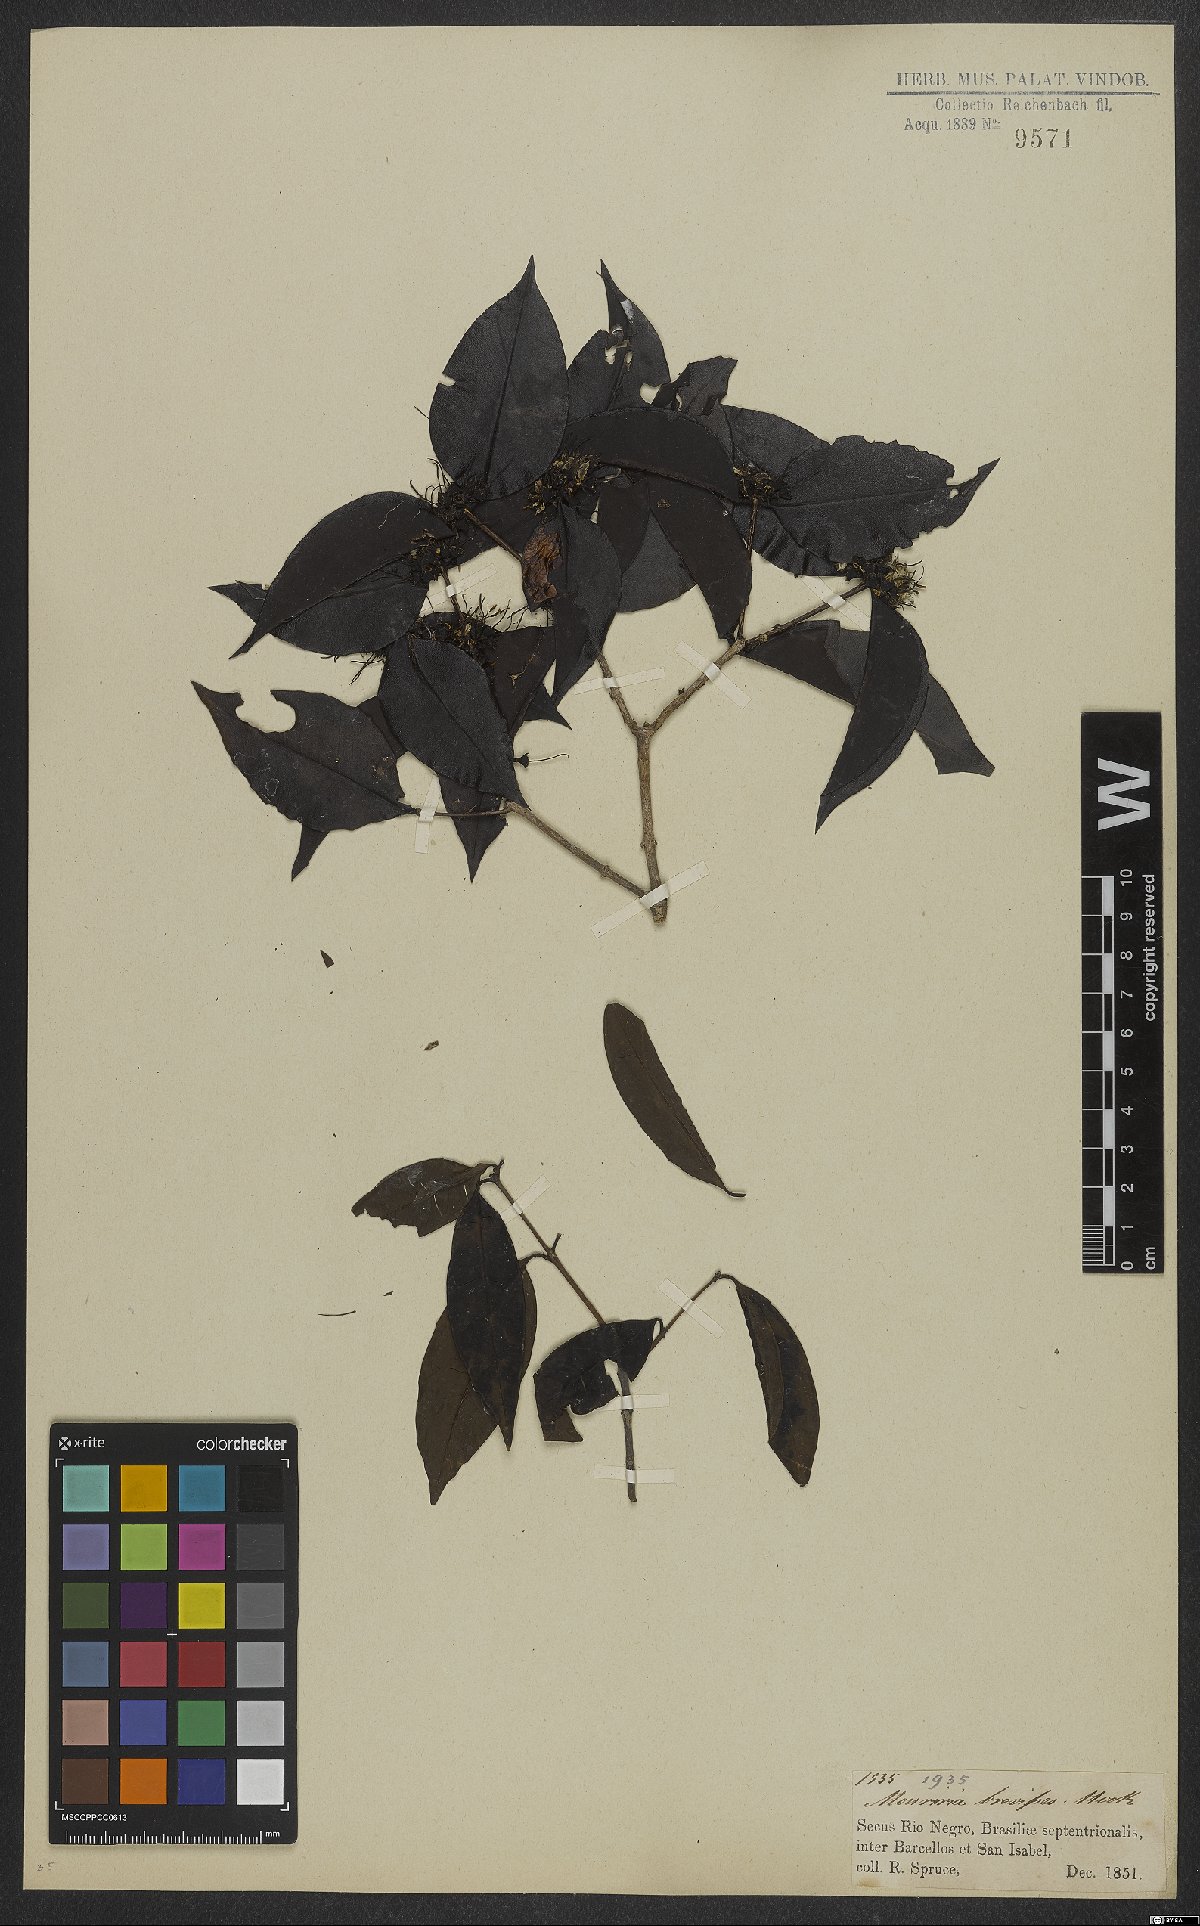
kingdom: Plantae
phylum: Tracheophyta
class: Magnoliopsida
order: Myrtales
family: Melastomataceae
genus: Mouriri
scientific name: Mouriri brevipes
